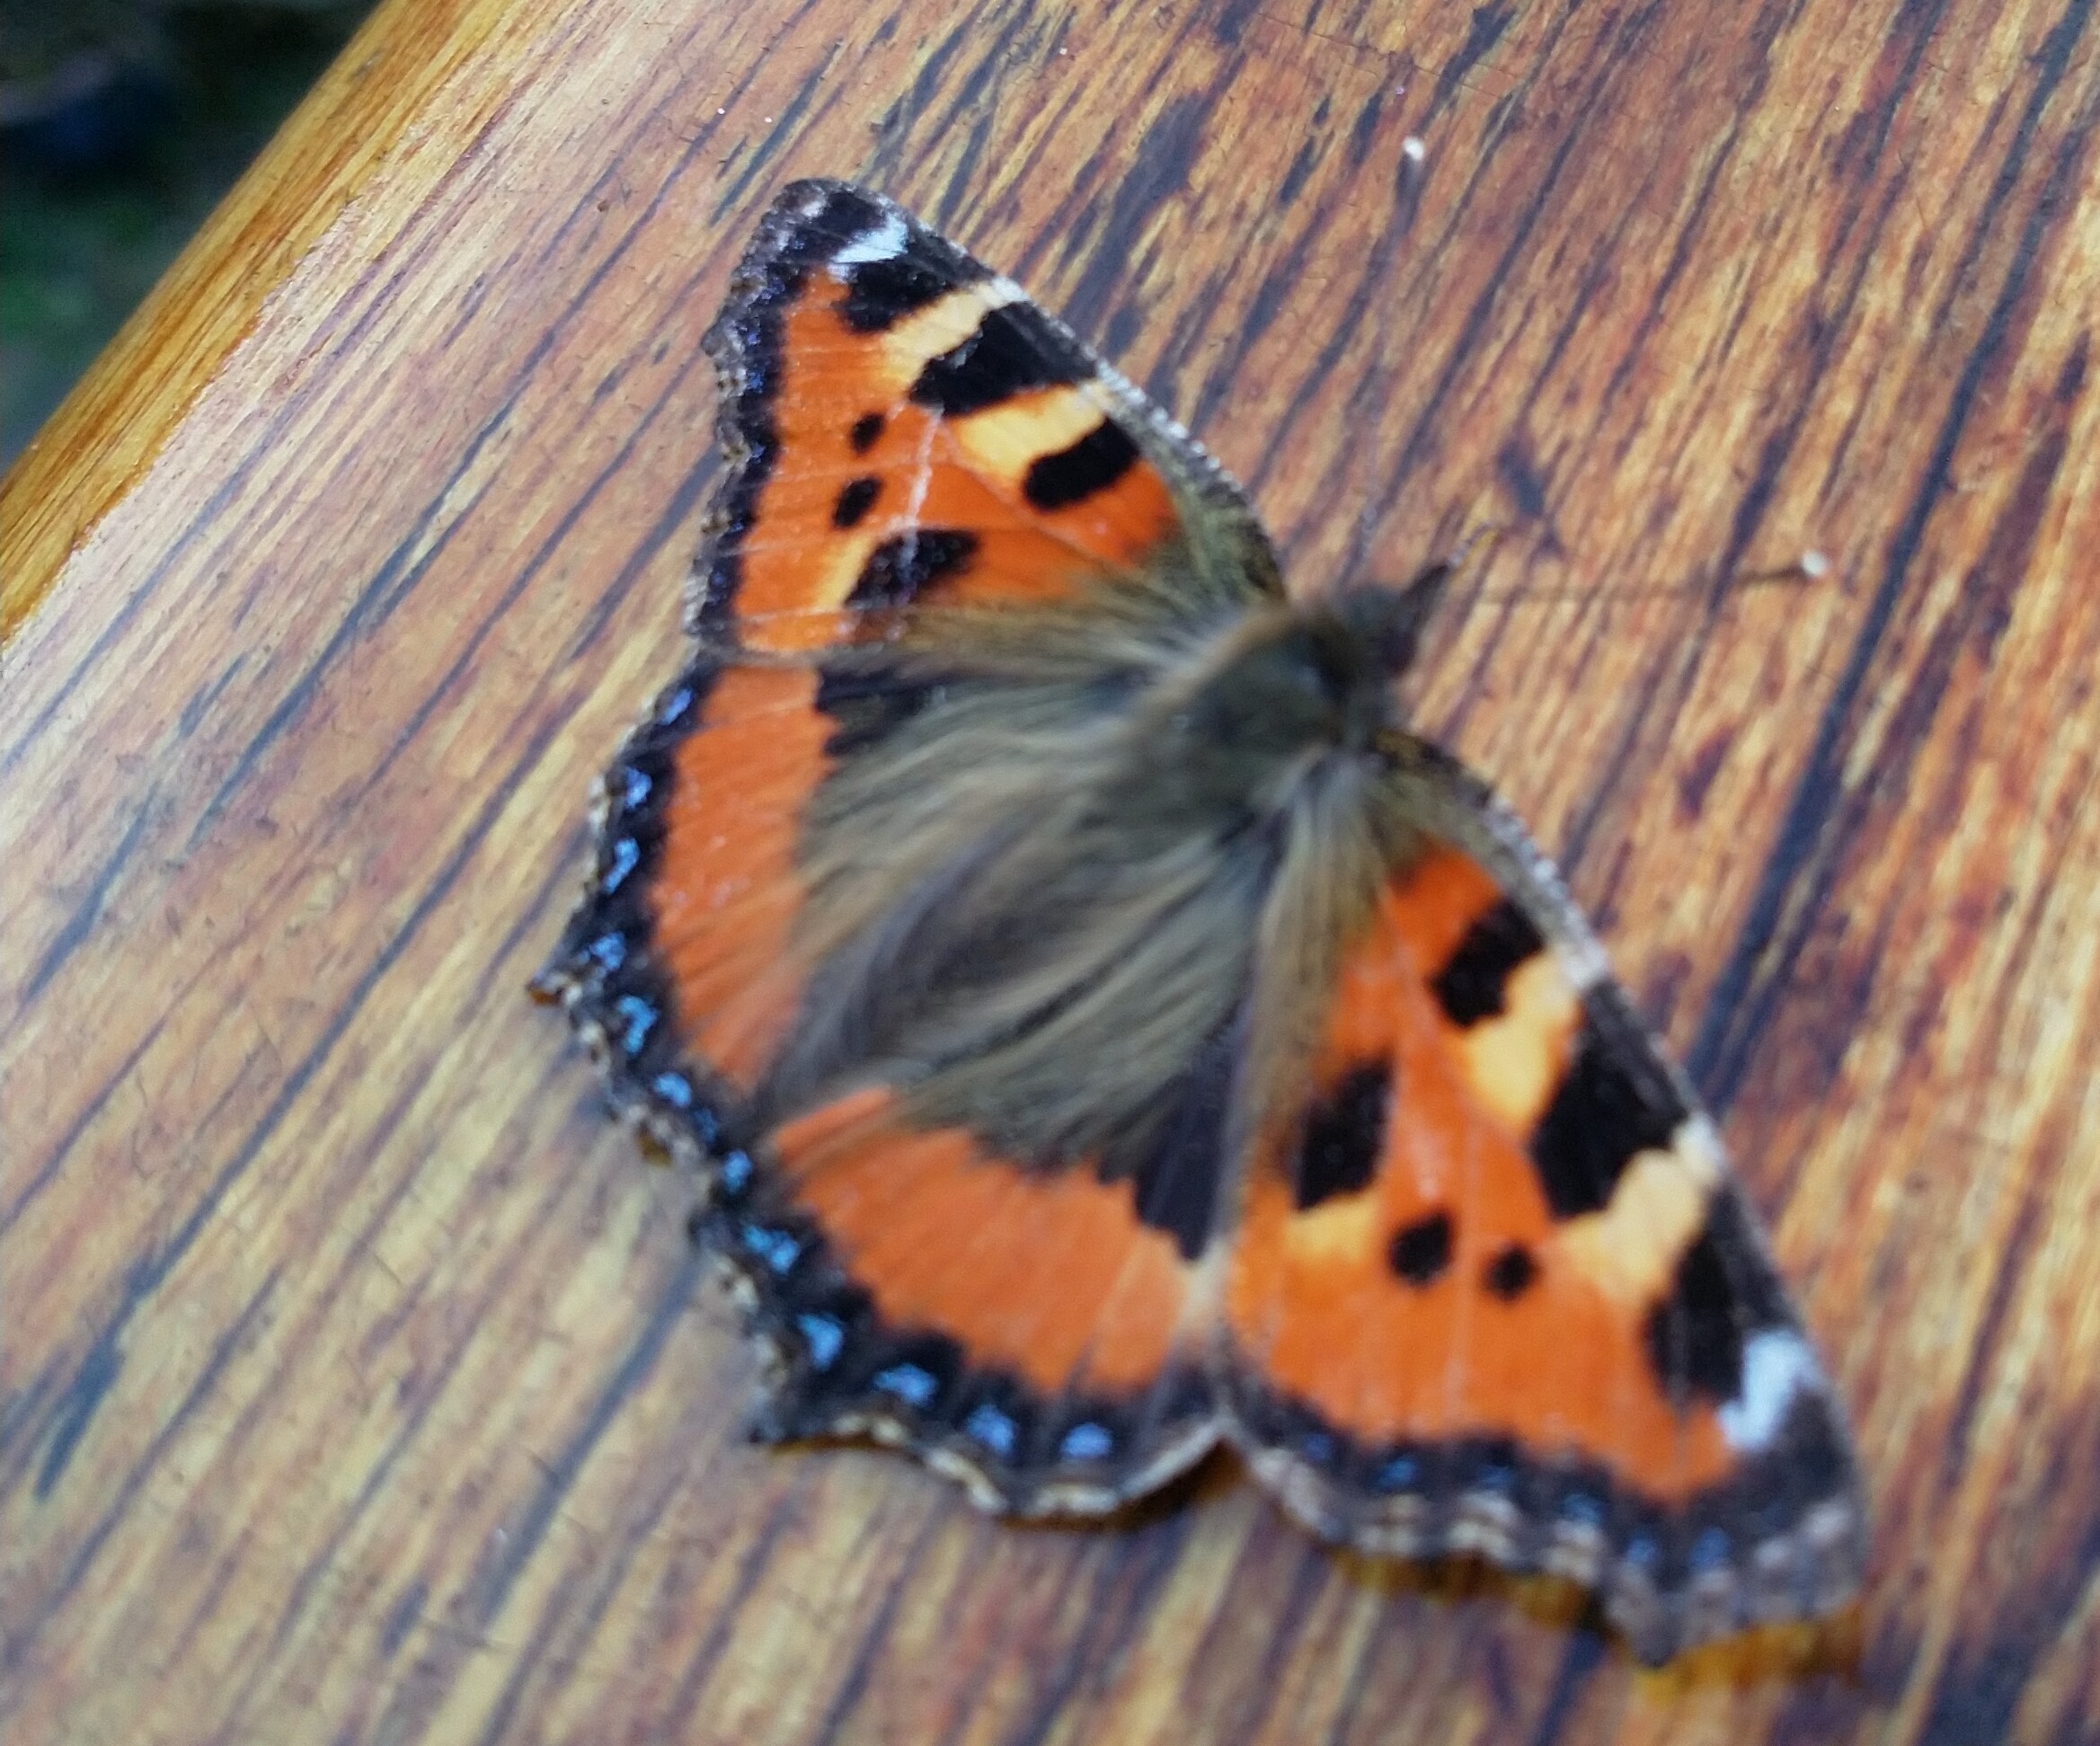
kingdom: Animalia
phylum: Arthropoda
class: Insecta
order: Lepidoptera
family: Nymphalidae
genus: Aglais
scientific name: Aglais urticae
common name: Nældens takvinge
